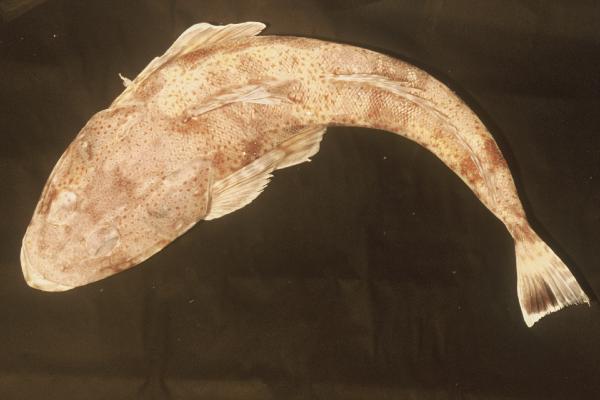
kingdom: Animalia
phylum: Chordata
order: Scorpaeniformes
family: Platycephalidae
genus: Platycephalus
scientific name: Platycephalus bassensis
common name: Sand flathead
